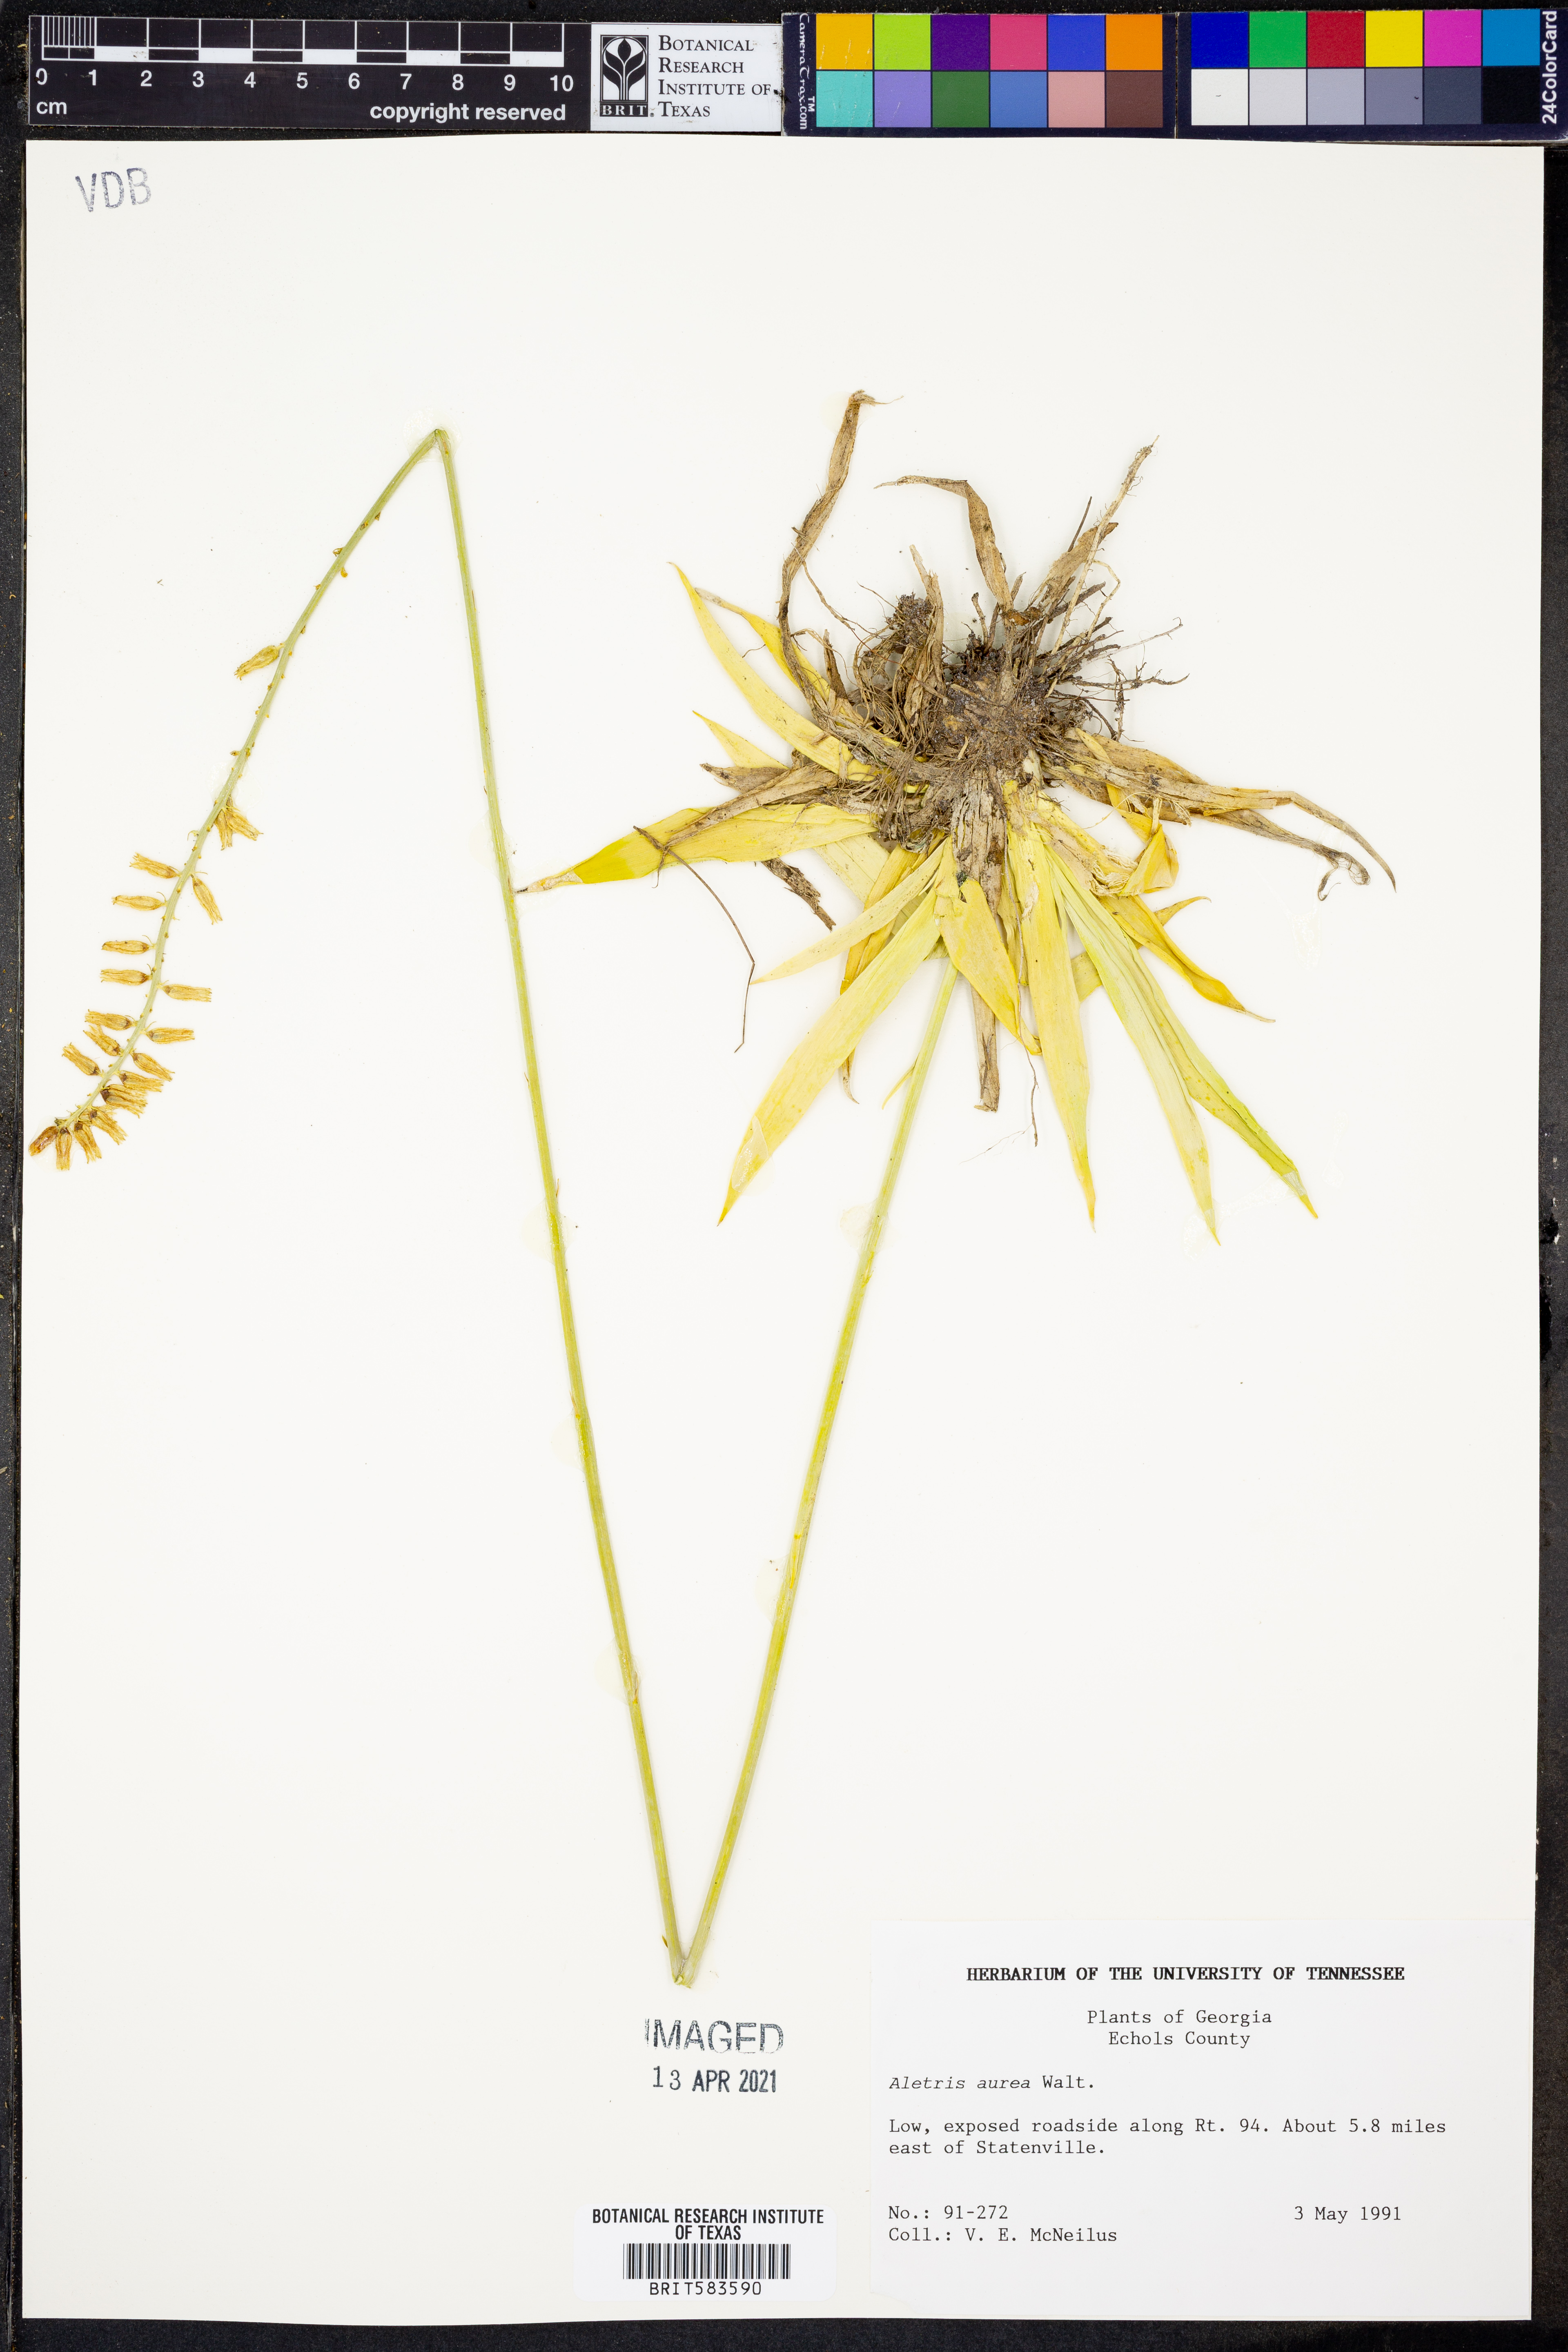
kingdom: Plantae
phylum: Tracheophyta
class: Liliopsida
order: Dioscoreales
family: Nartheciaceae
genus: Aletris
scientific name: Aletris aurea
